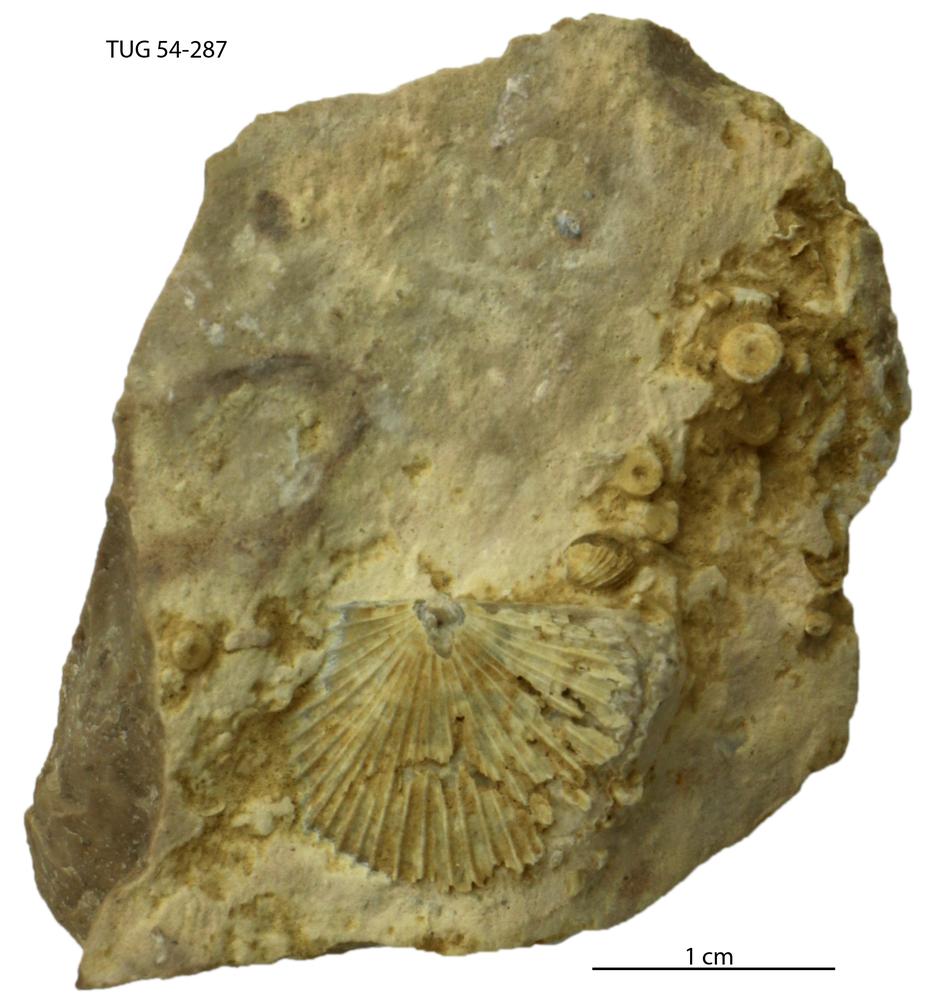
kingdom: Animalia
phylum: Brachiopoda
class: Rhynchonellata
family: Productorthidae
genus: Nicolella
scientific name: Nicolella oswaldi
